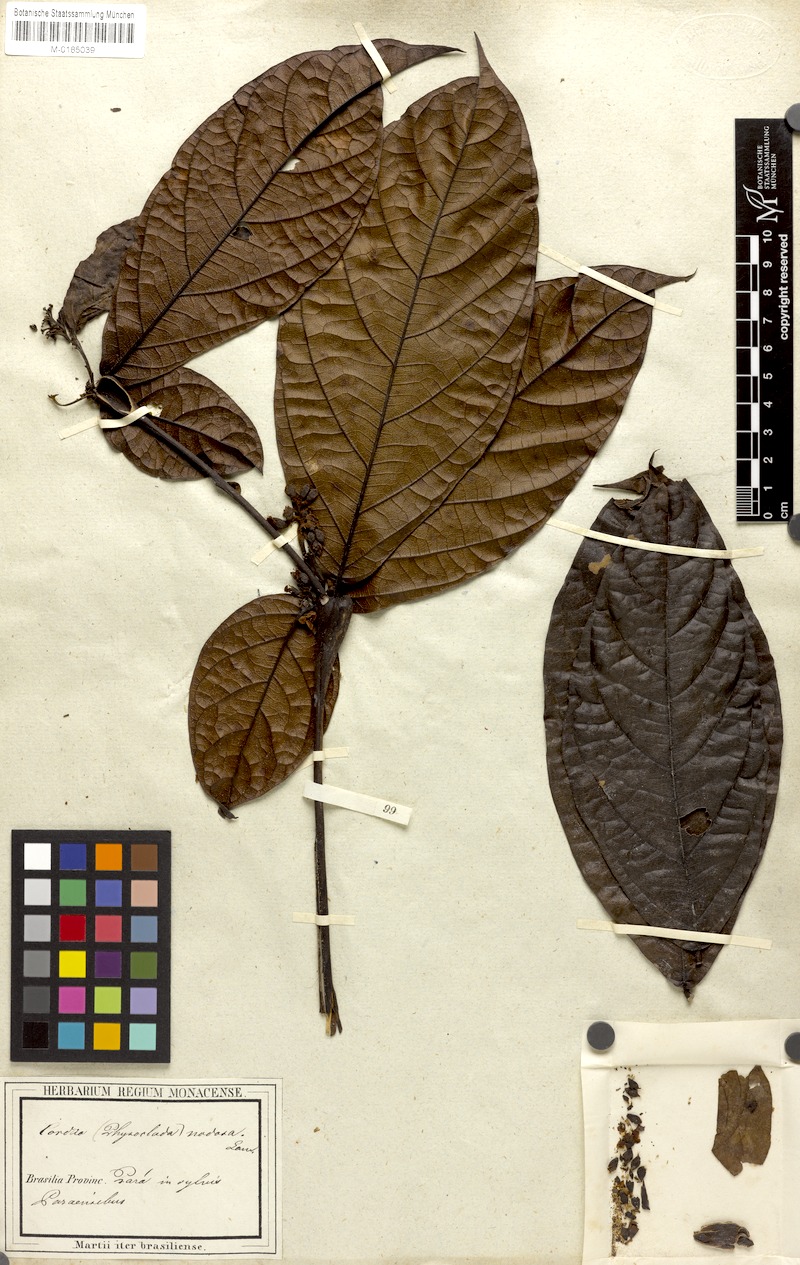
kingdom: Plantae
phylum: Tracheophyta
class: Magnoliopsida
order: Boraginales
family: Cordiaceae
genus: Cordia
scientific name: Cordia nodosa
